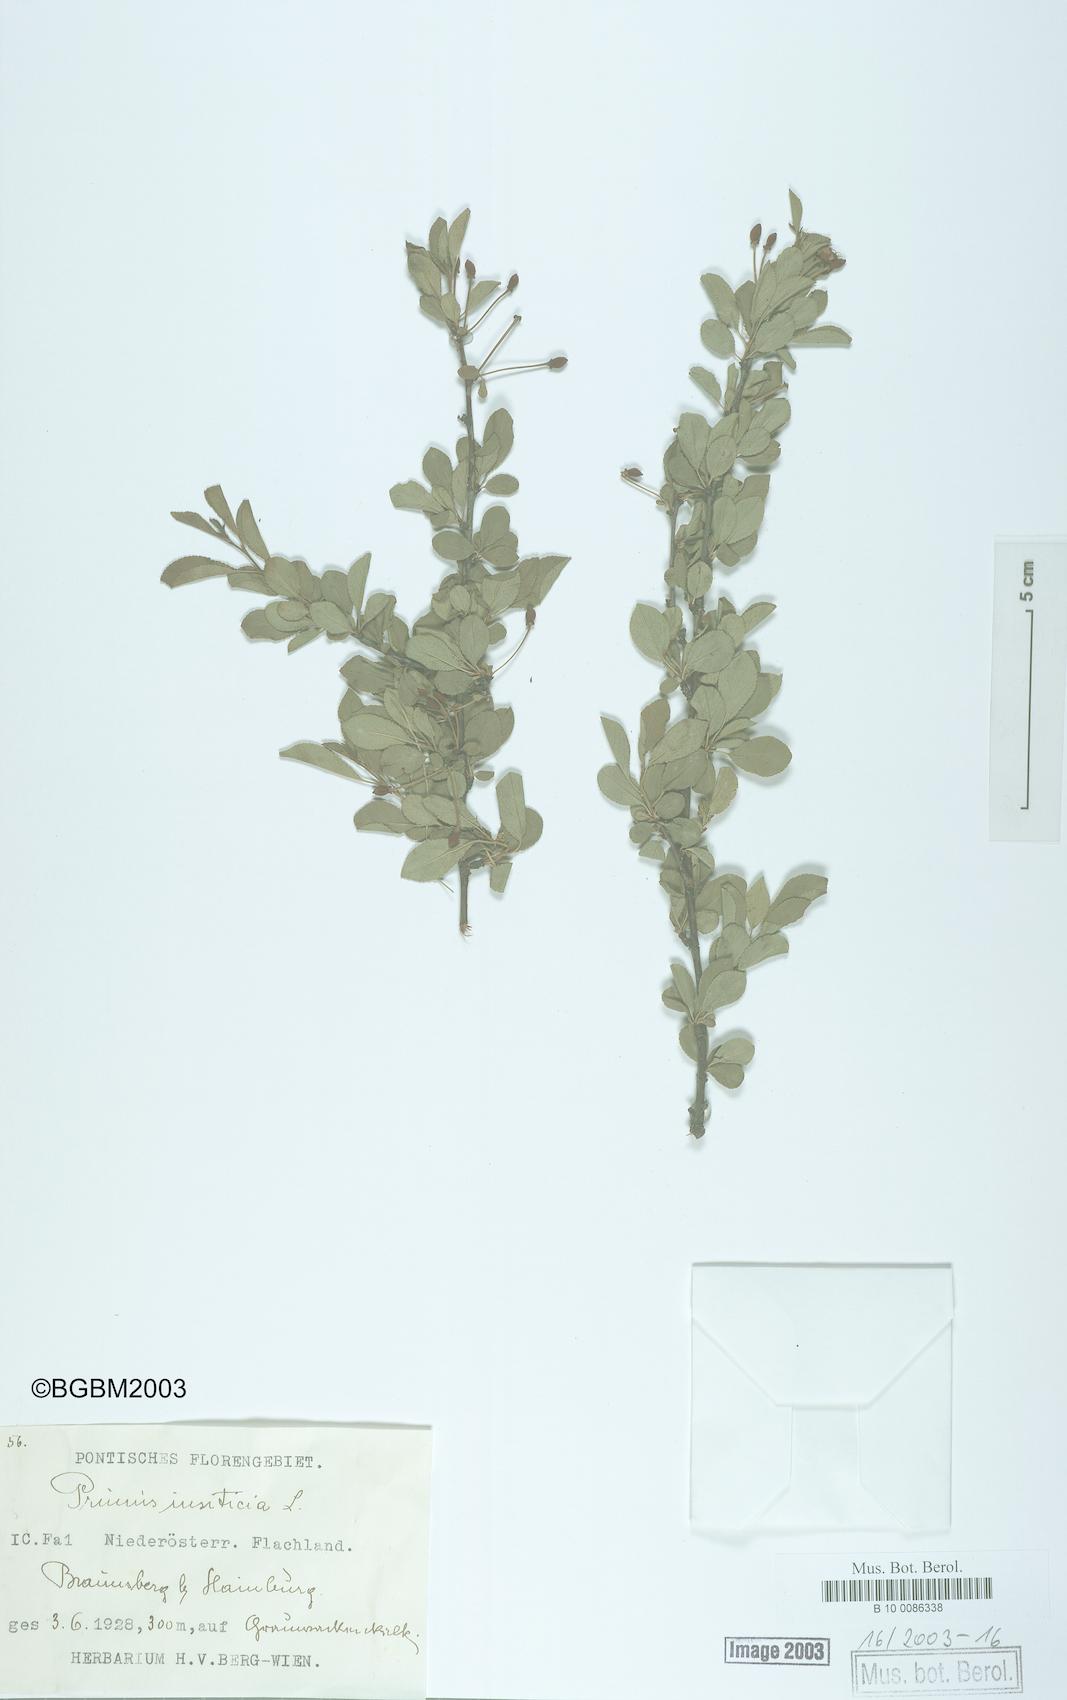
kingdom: Plantae
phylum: Tracheophyta
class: Magnoliopsida
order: Rosales
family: Rosaceae
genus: Prunus
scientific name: Prunus domestica
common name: Wild plum
